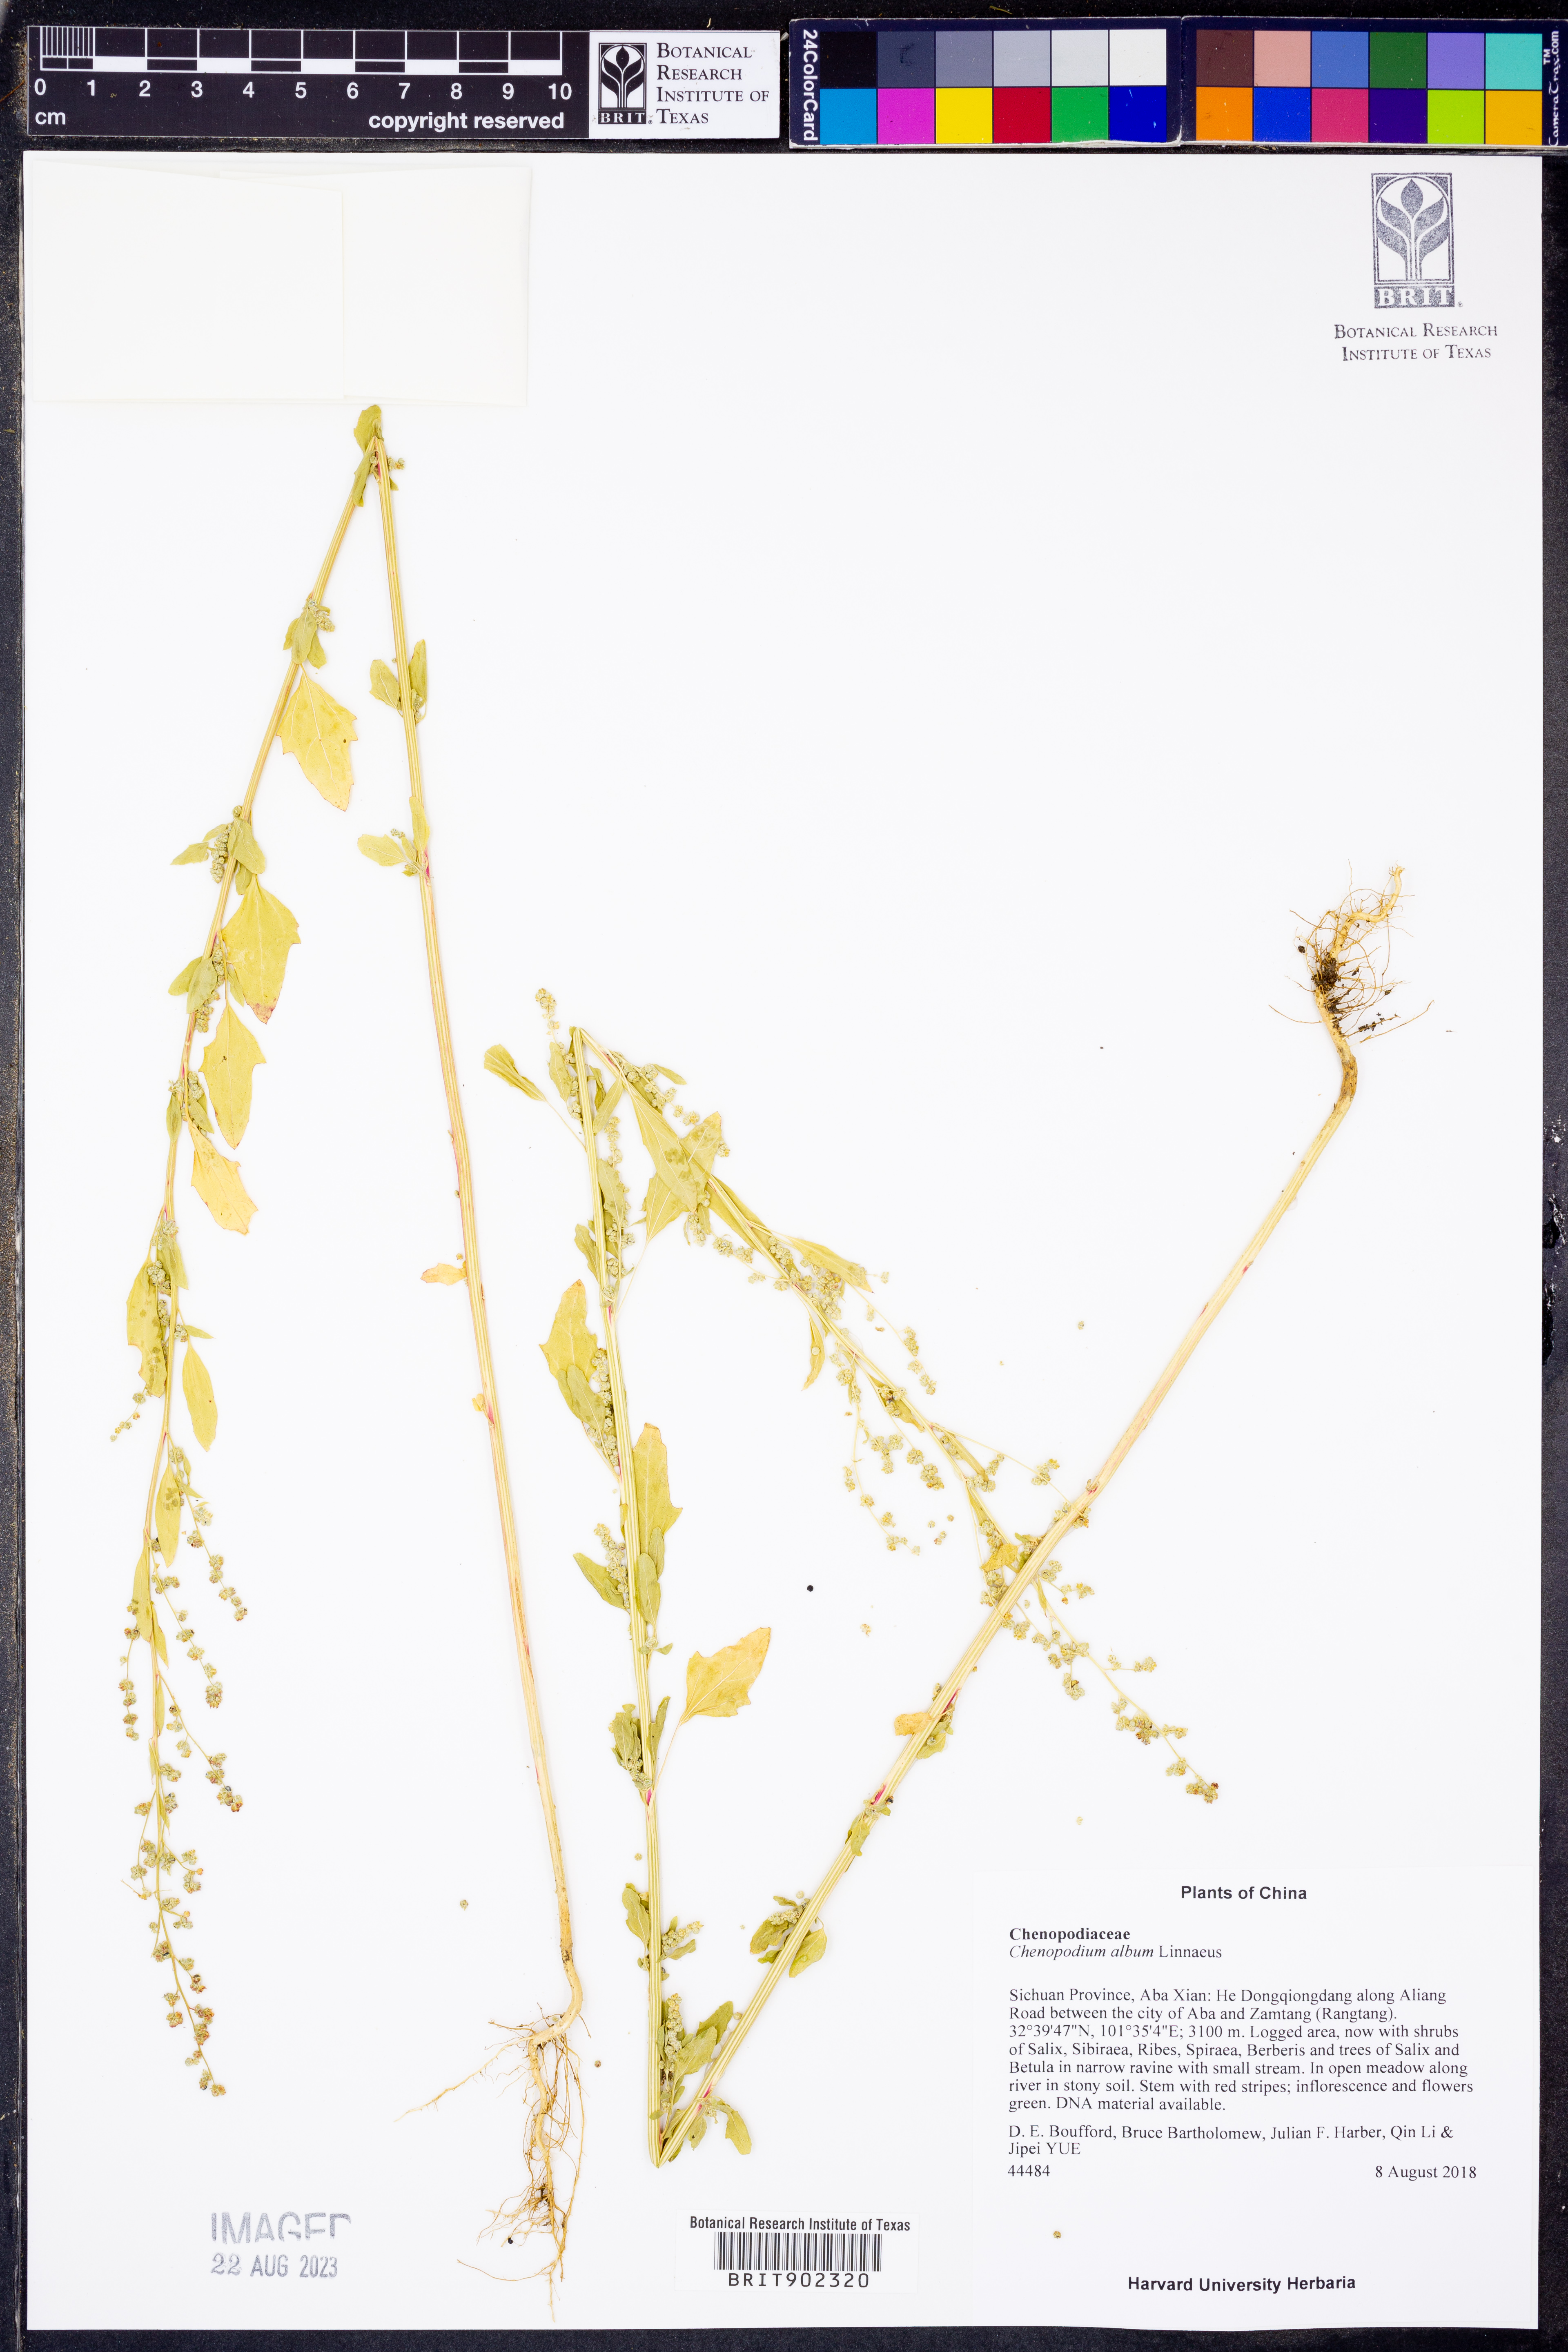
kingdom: Plantae
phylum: Tracheophyta
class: Magnoliopsida
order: Caryophyllales
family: Amaranthaceae
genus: Chenopodium
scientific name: Chenopodium album
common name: Fat-hen
